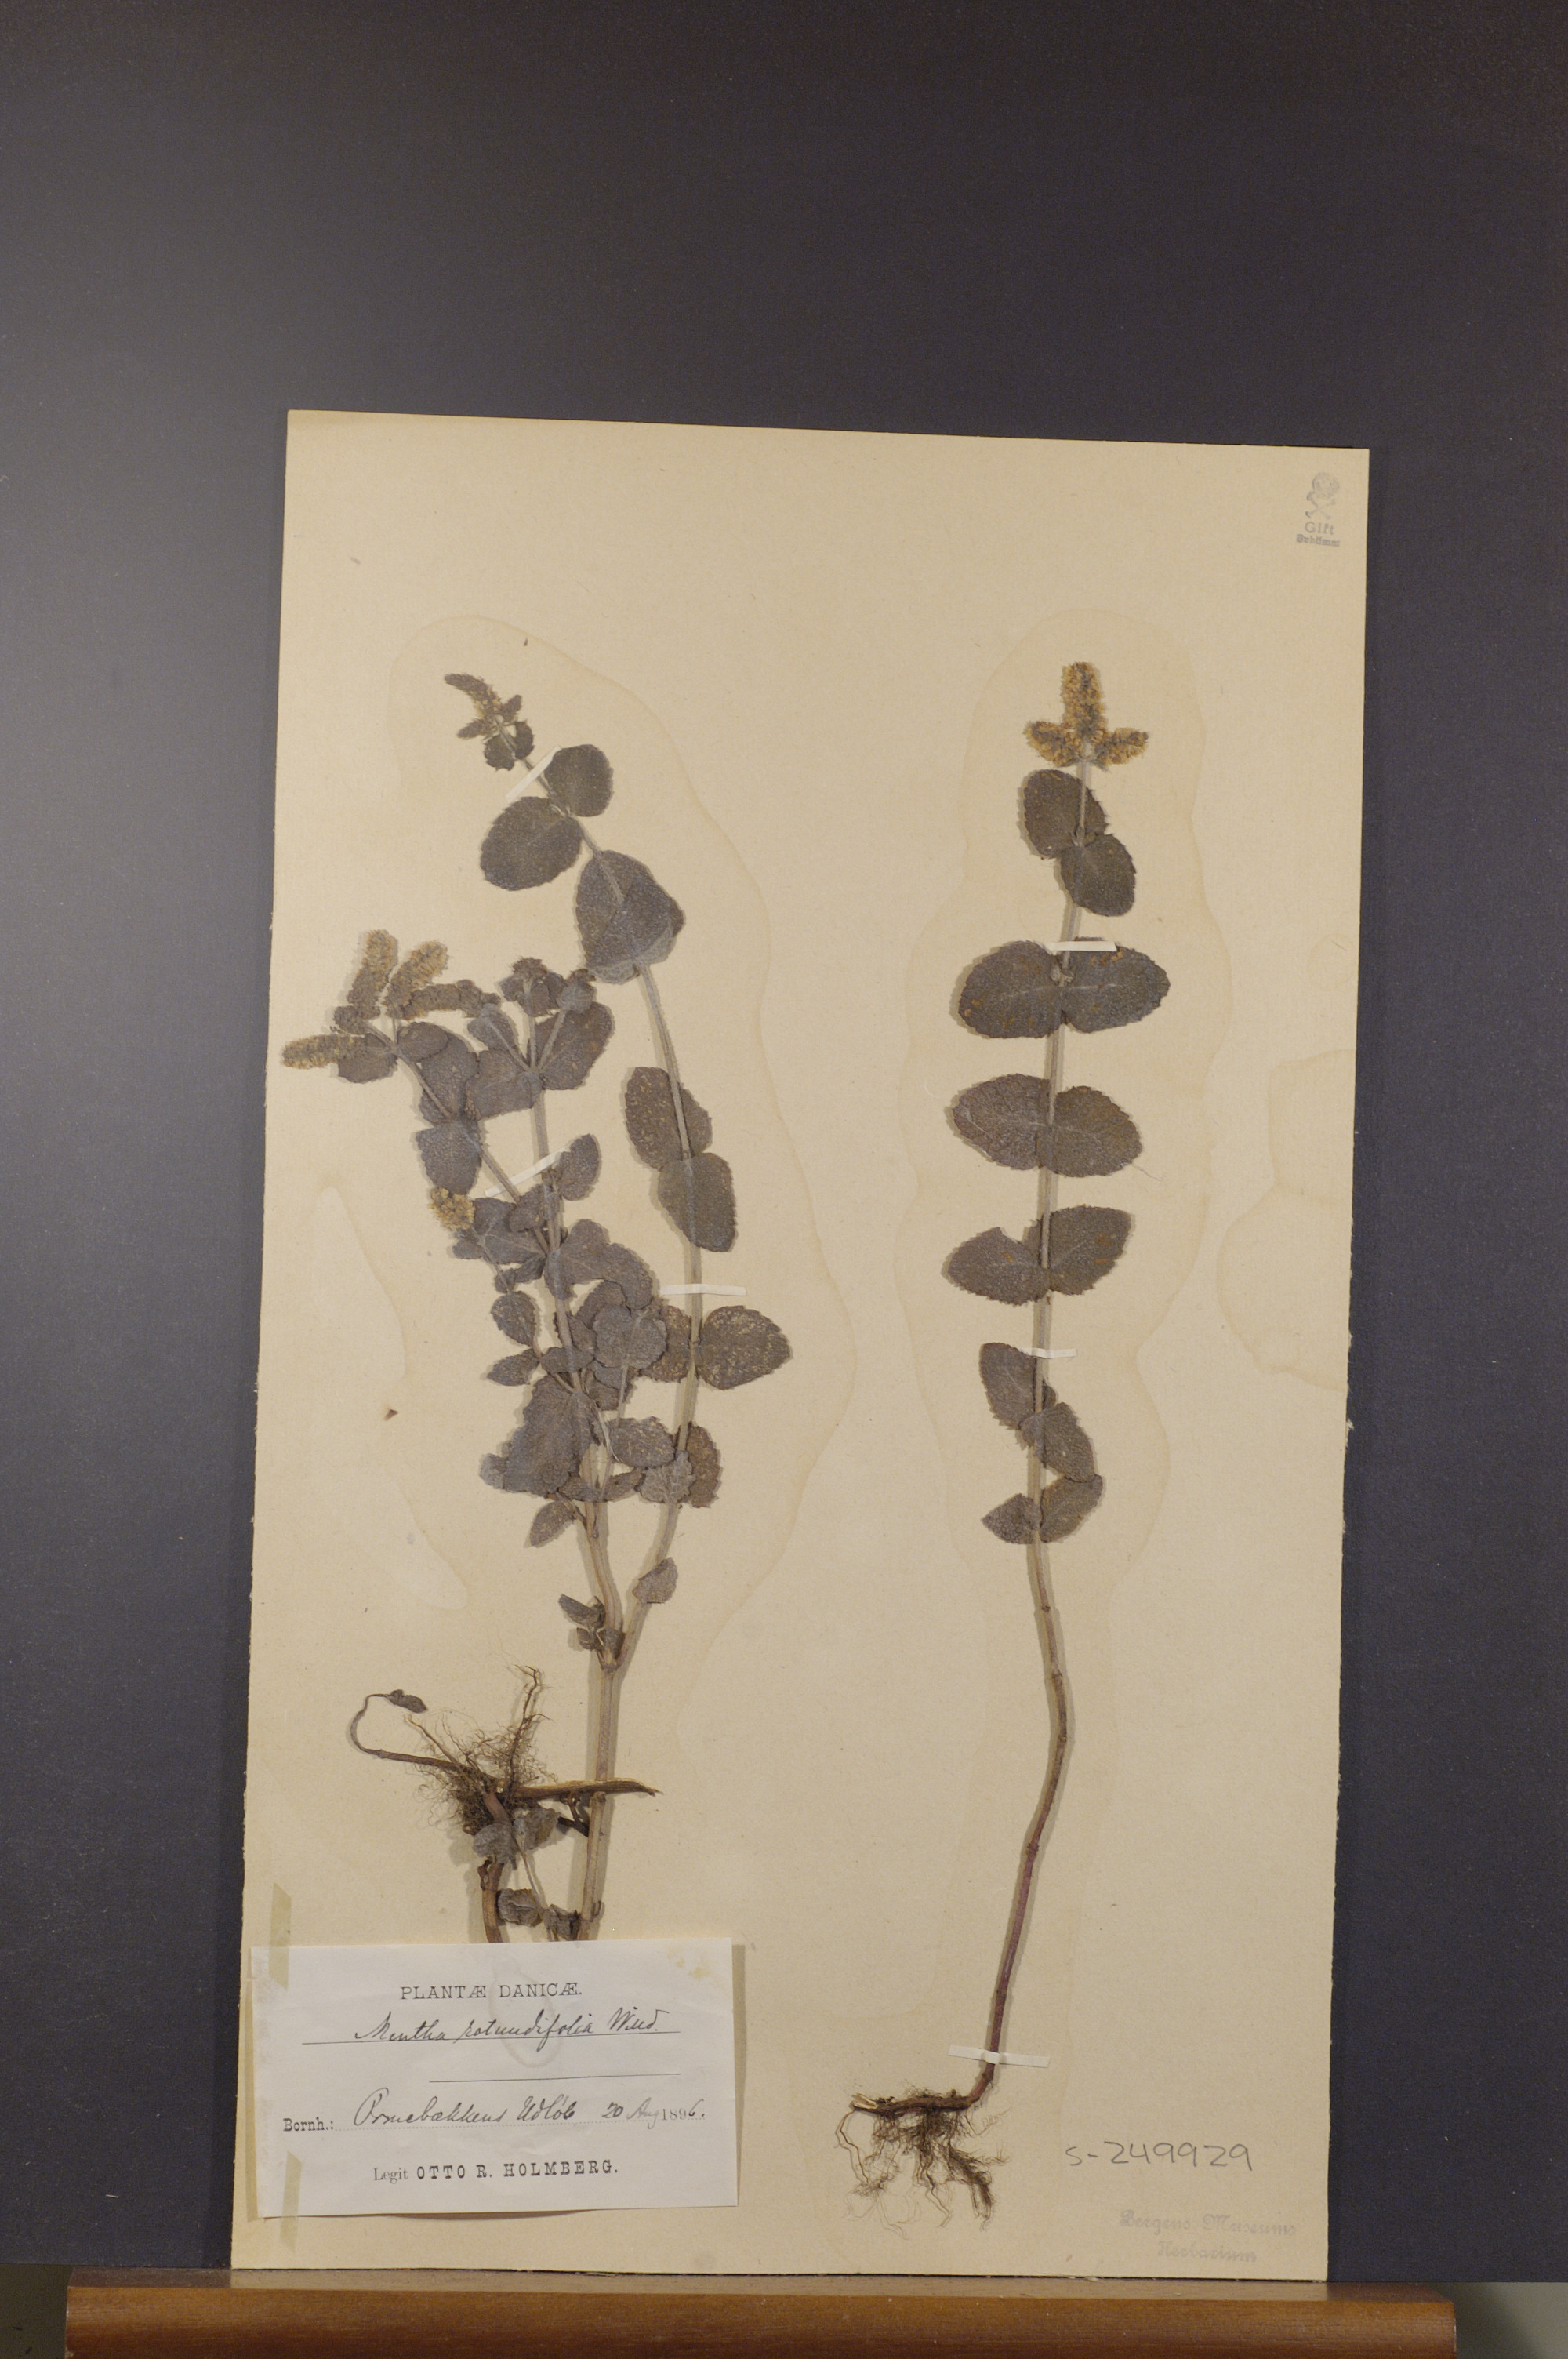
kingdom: Plantae
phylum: Tracheophyta
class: Magnoliopsida
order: Lamiales
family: Lamiaceae
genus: Mentha
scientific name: Mentha rotundifolia
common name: Bigleaf mint
